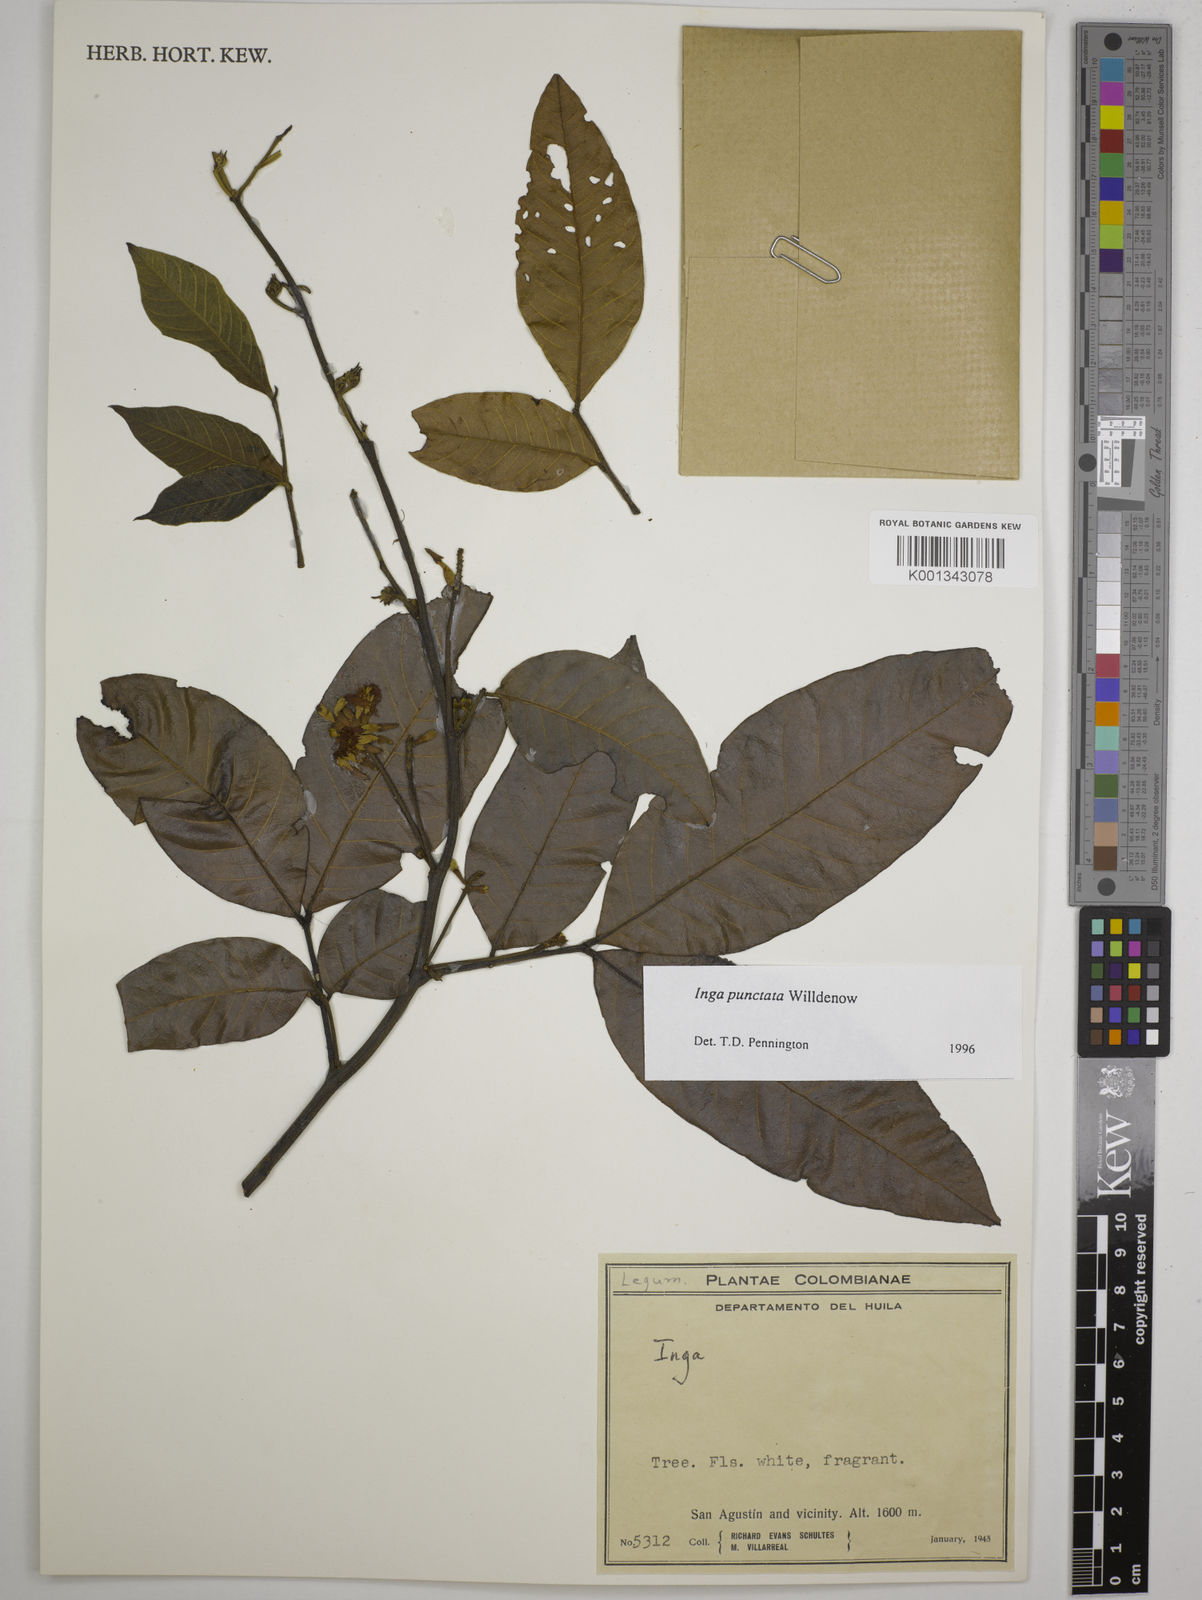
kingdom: Plantae
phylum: Tracheophyta
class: Magnoliopsida
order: Fabales
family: Fabaceae
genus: Inga
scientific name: Inga punctata
